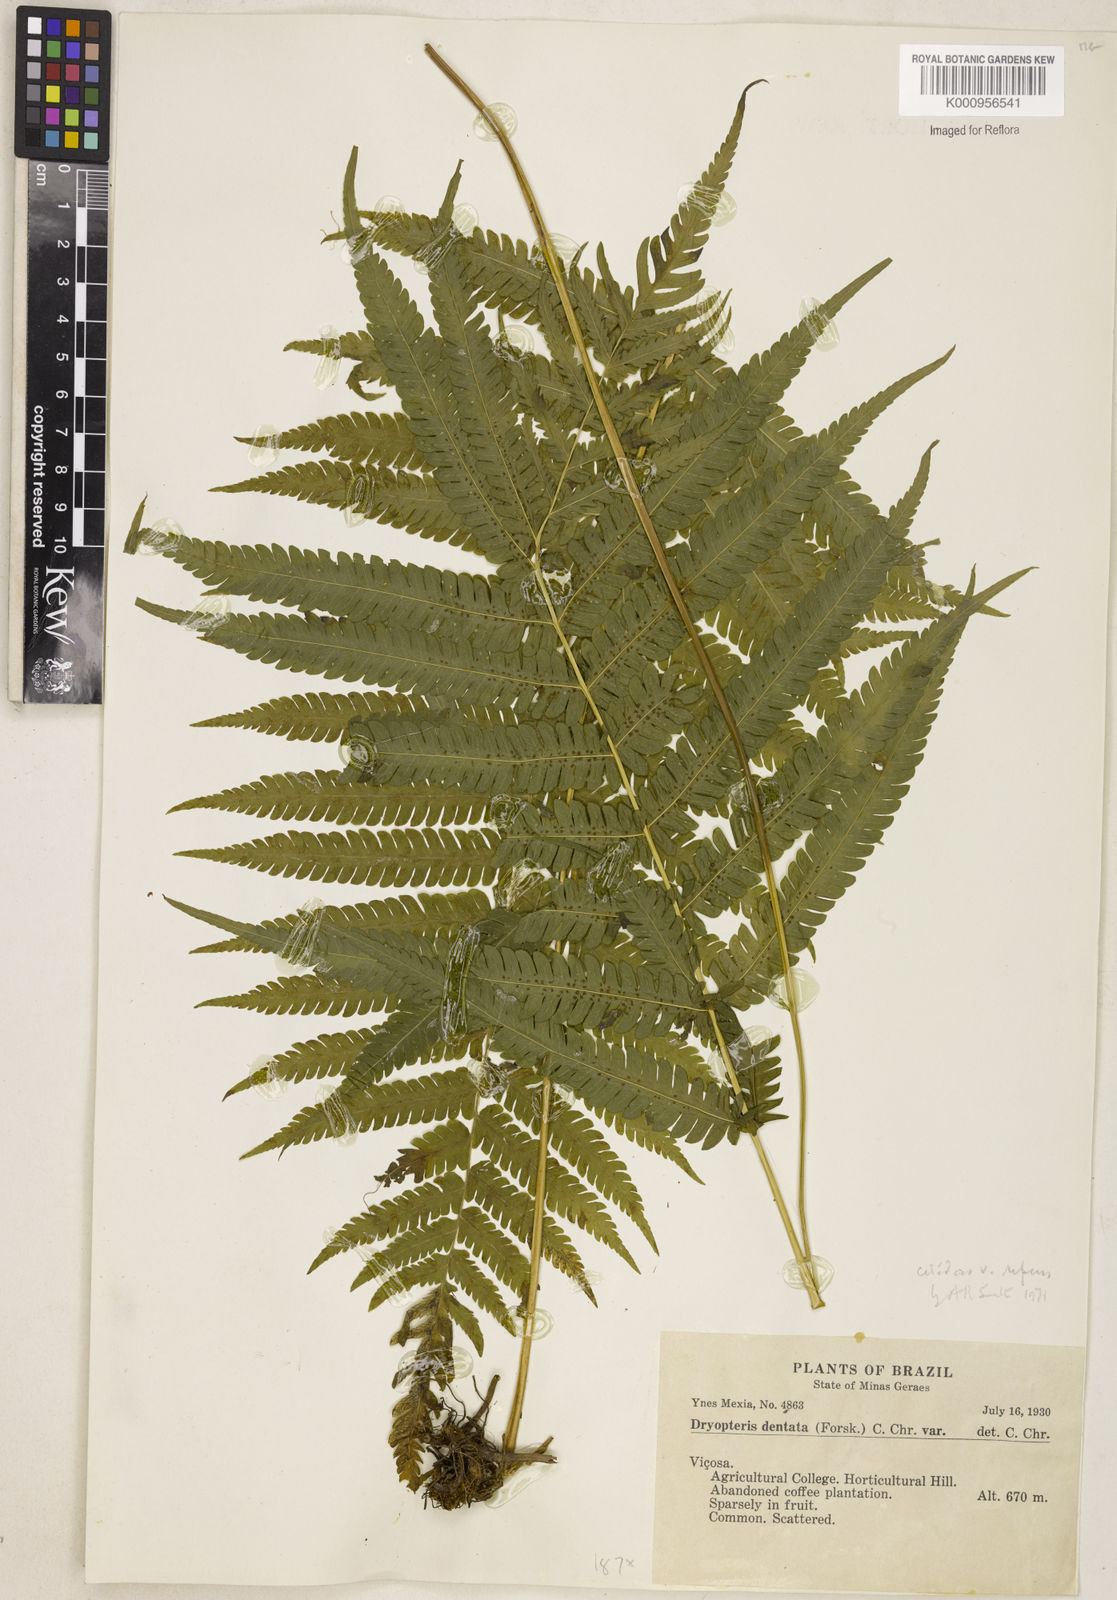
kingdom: Plantae
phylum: Tracheophyta
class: Polypodiopsida
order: Polypodiales
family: Thelypteridaceae
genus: Christella
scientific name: Christella hispidula
